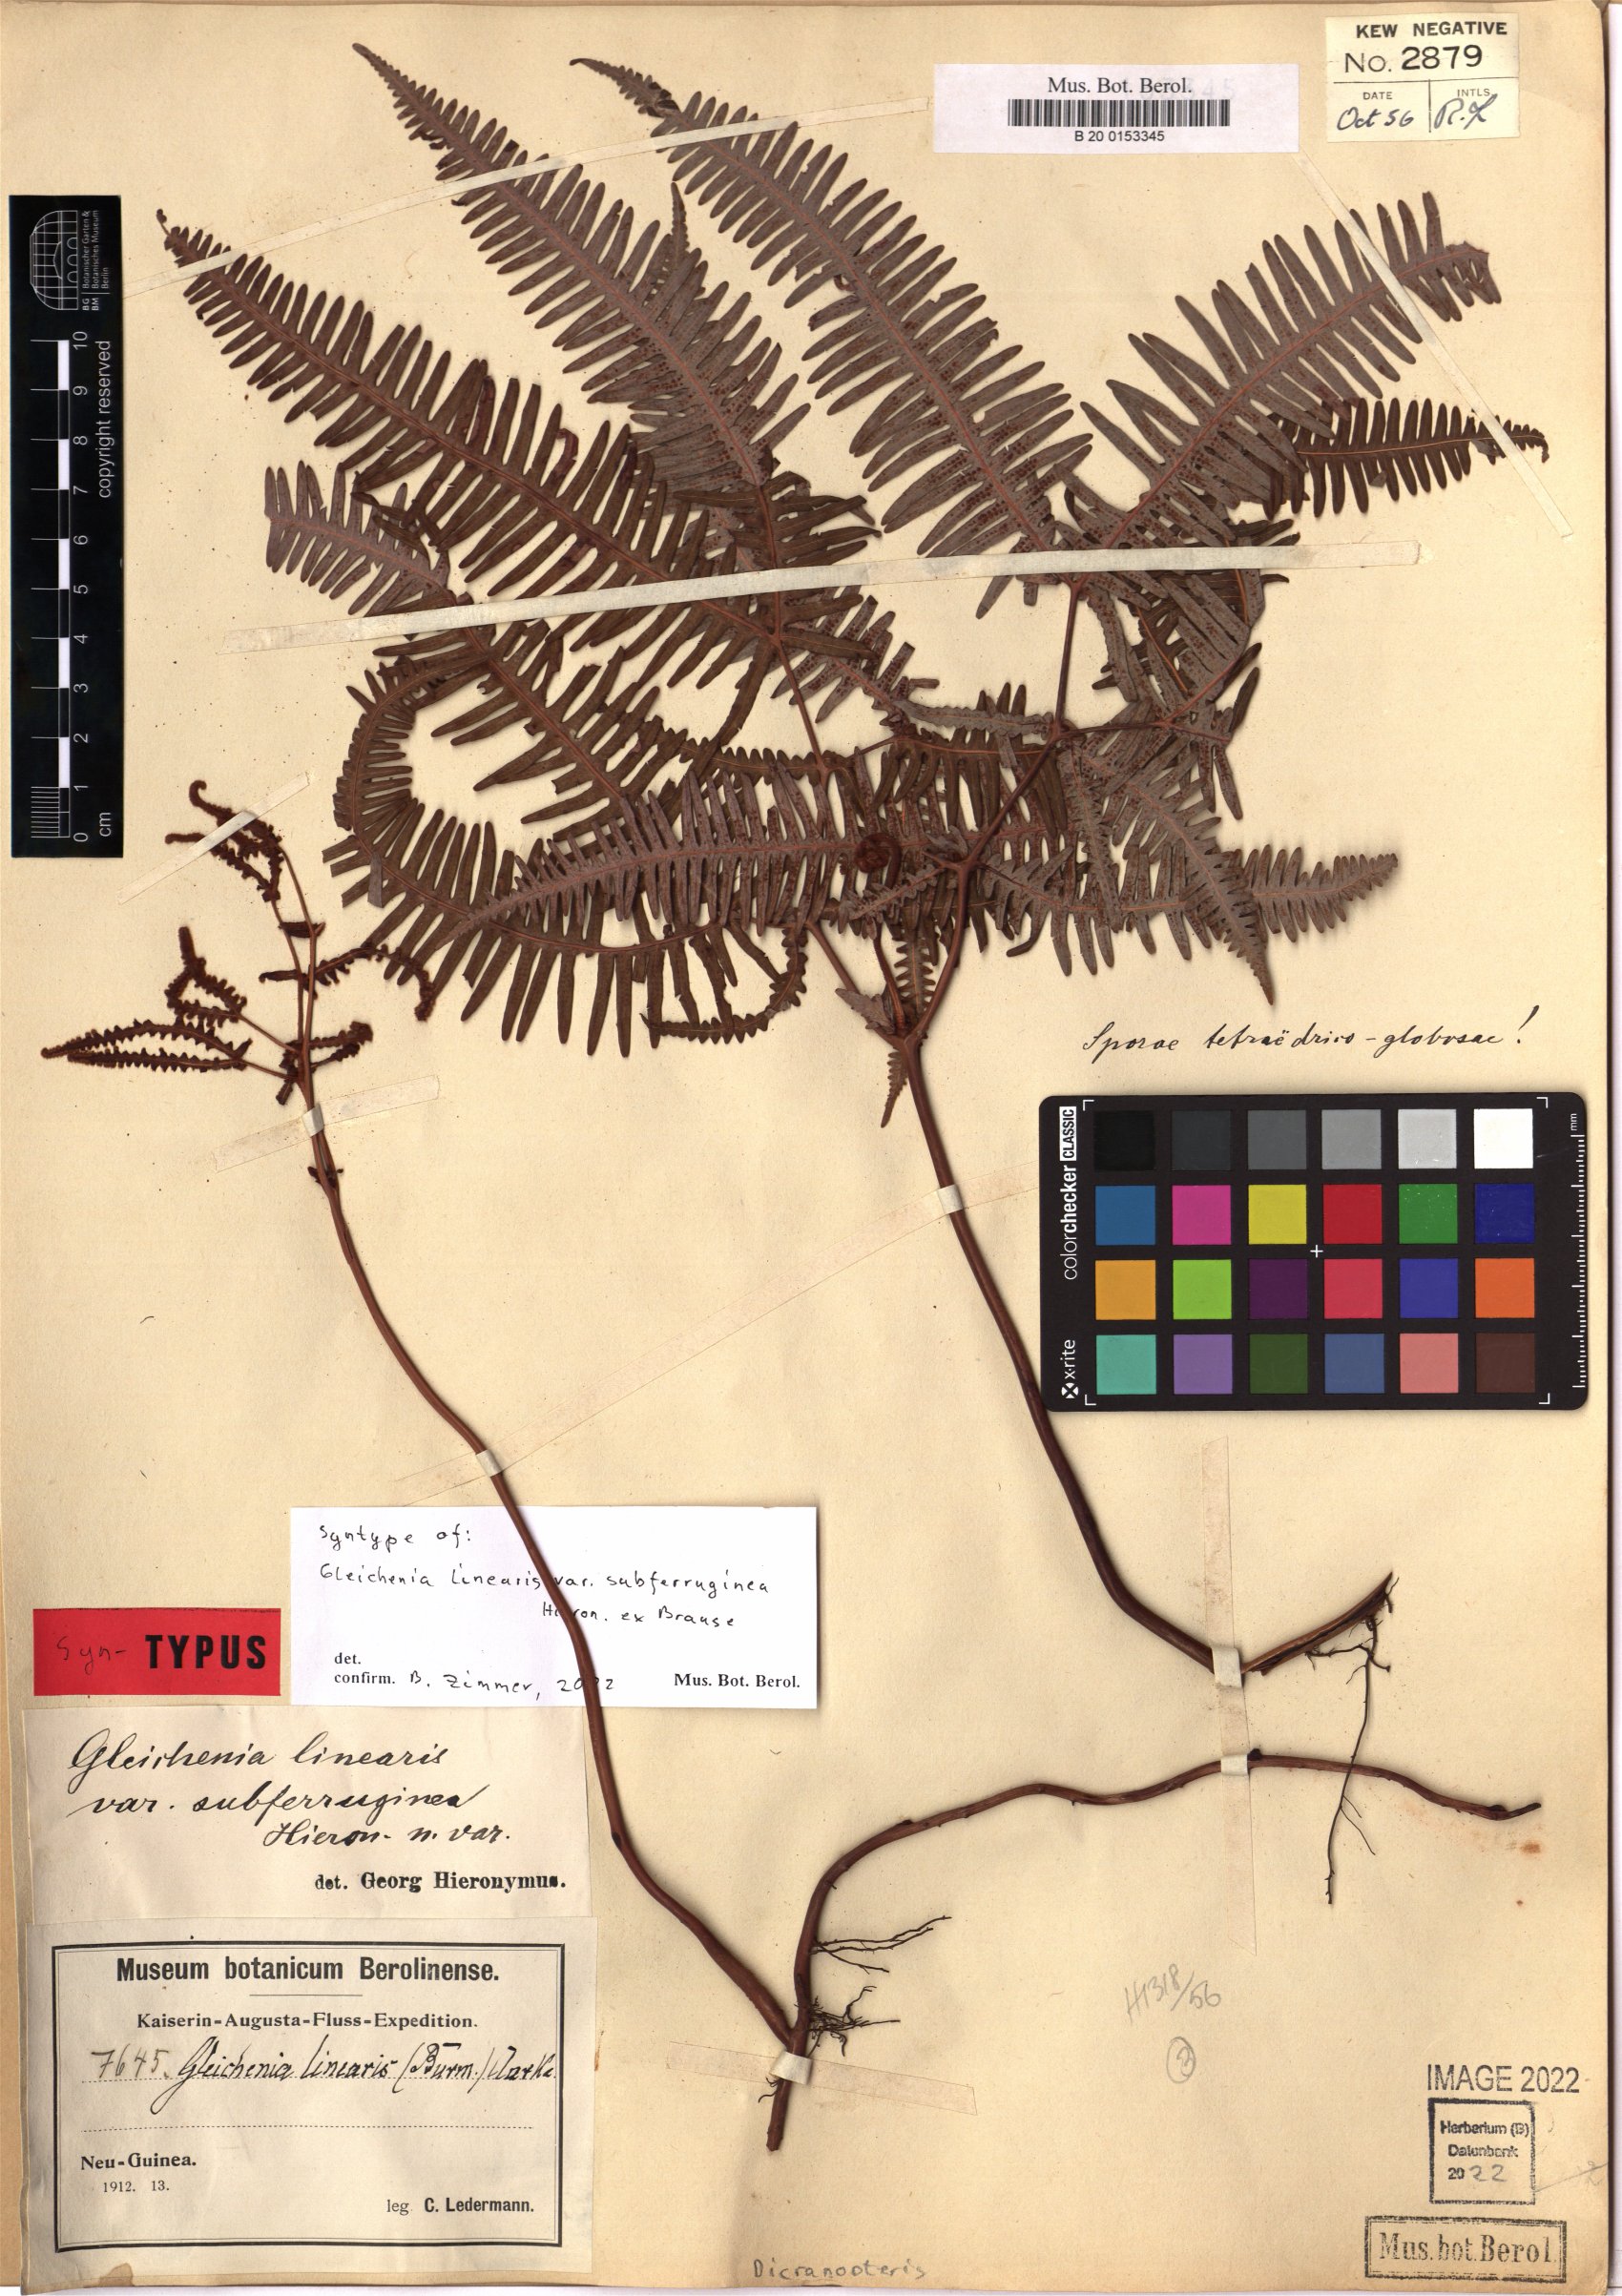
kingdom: Plantae
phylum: Tracheophyta
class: Polypodiopsida
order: Gleicheniales
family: Gleicheniaceae
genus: Dicranopteris
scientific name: Dicranopteris linearis
